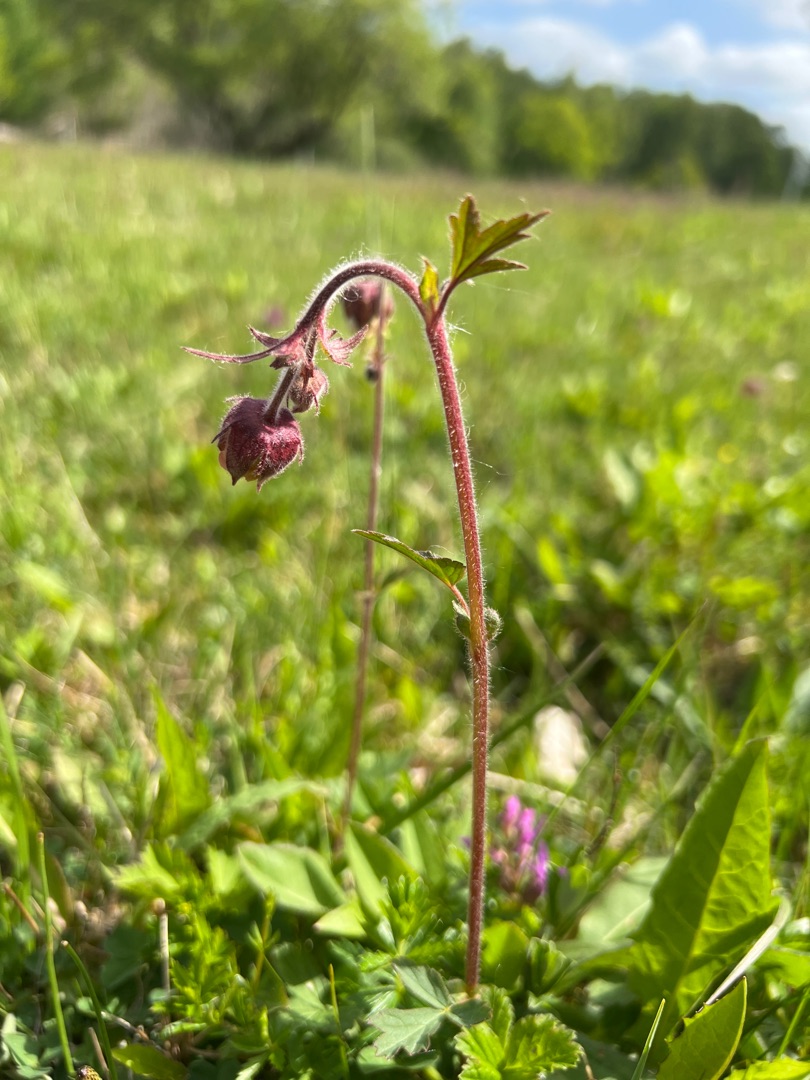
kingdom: Plantae
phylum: Tracheophyta
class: Magnoliopsida
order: Rosales
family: Rosaceae
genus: Geum
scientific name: Geum rivale
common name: Eng-nellikerod
